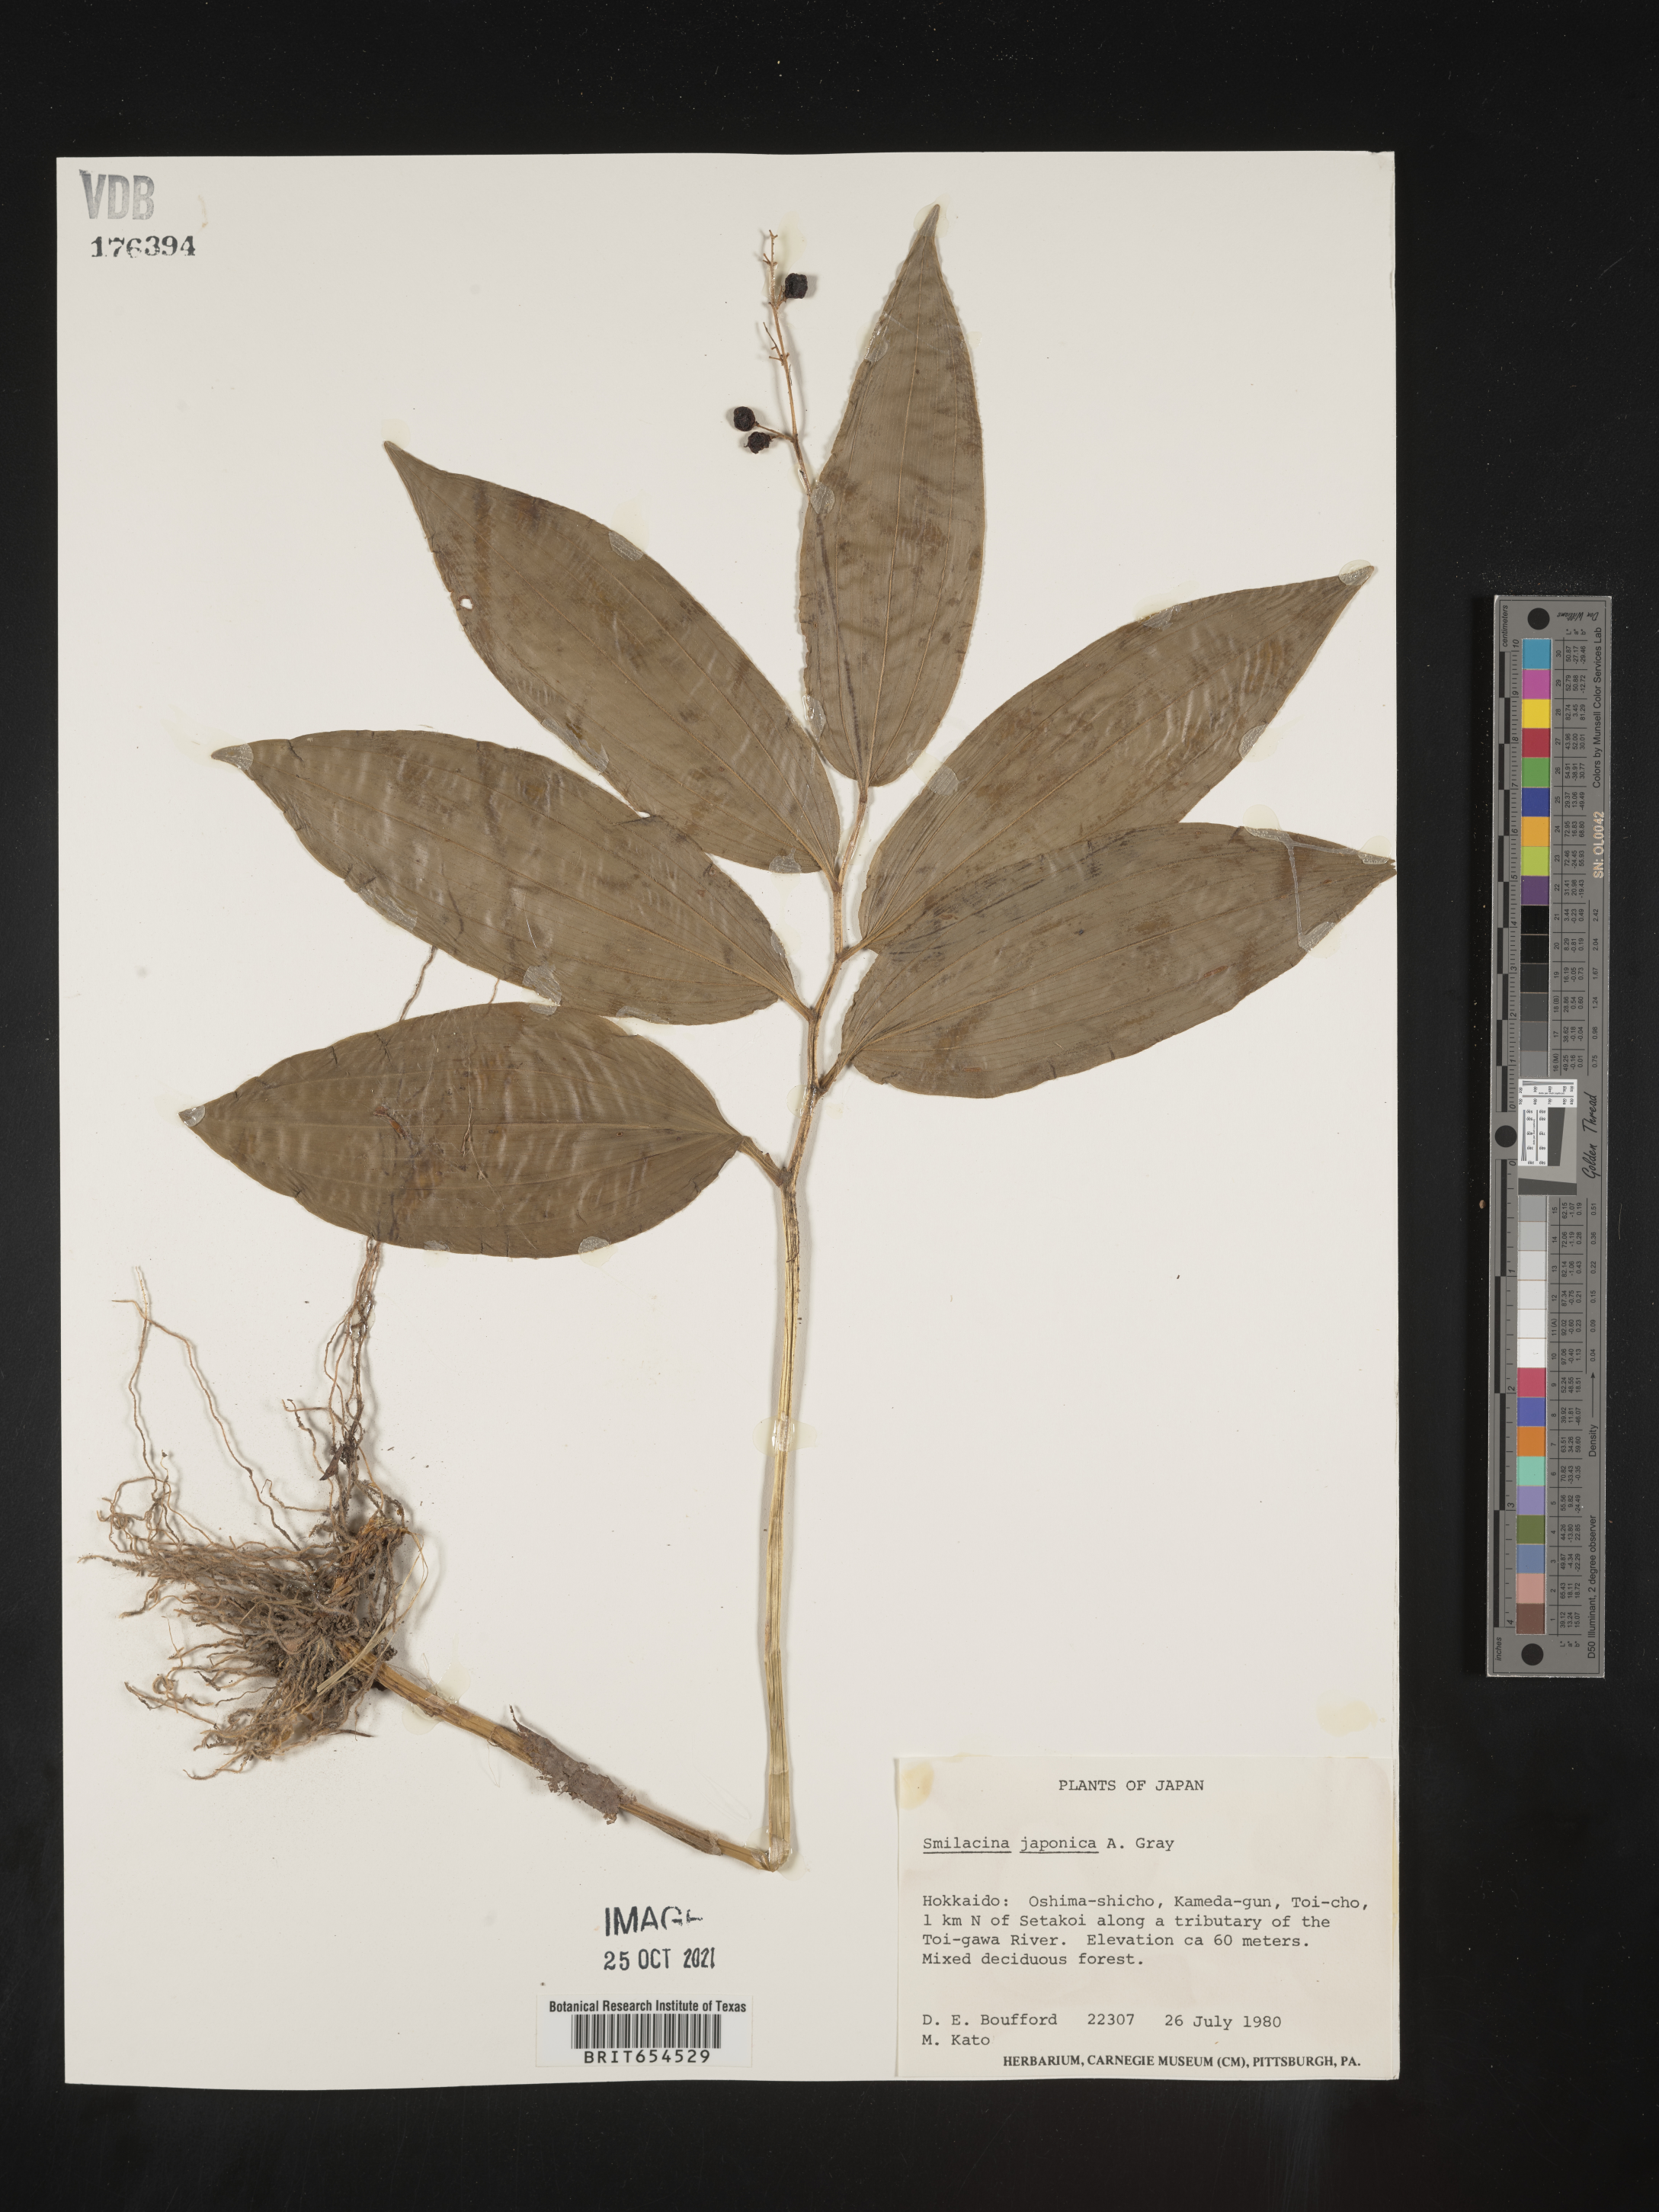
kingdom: Plantae
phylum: Tracheophyta
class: Liliopsida
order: Asparagales
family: Asparagaceae
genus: Maianthemum
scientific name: Maianthemum japonicum
